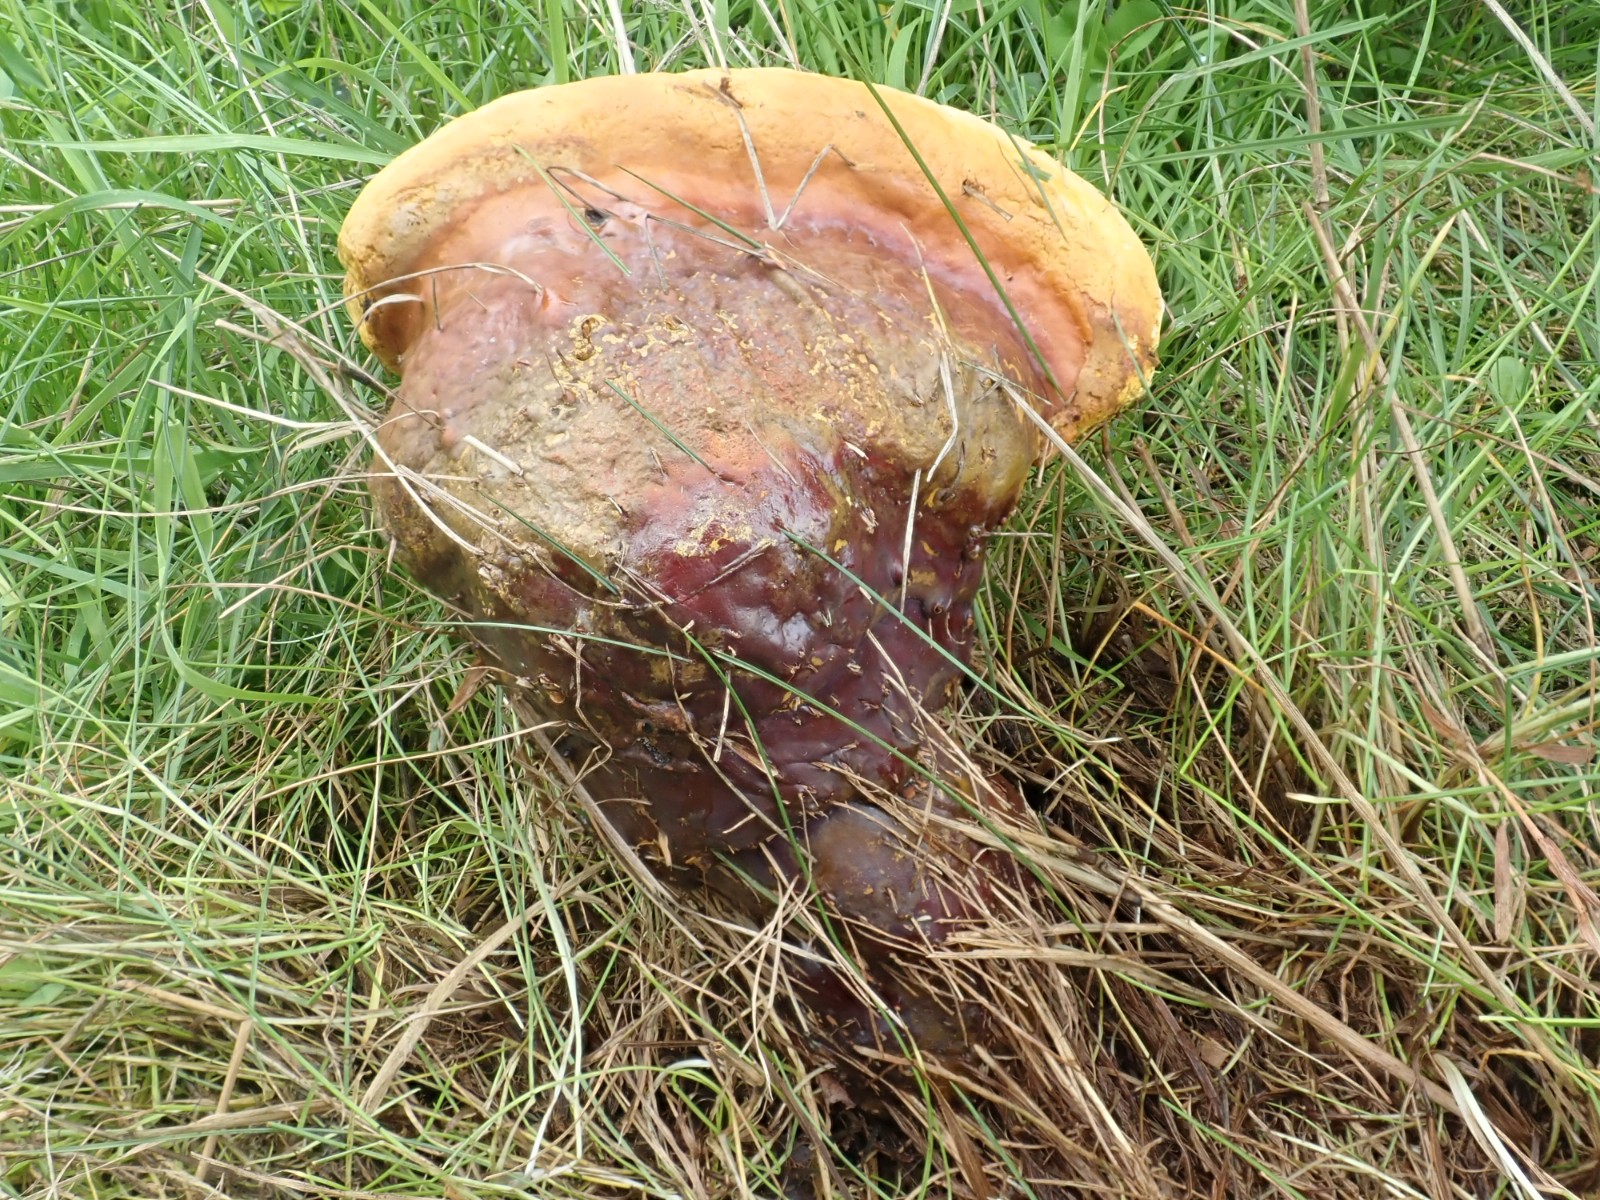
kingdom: Fungi
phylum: Basidiomycota
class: Agaricomycetes
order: Polyporales
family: Polyporaceae
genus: Ganoderma
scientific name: Ganoderma lucidum
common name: skinnende lakporesvamp
